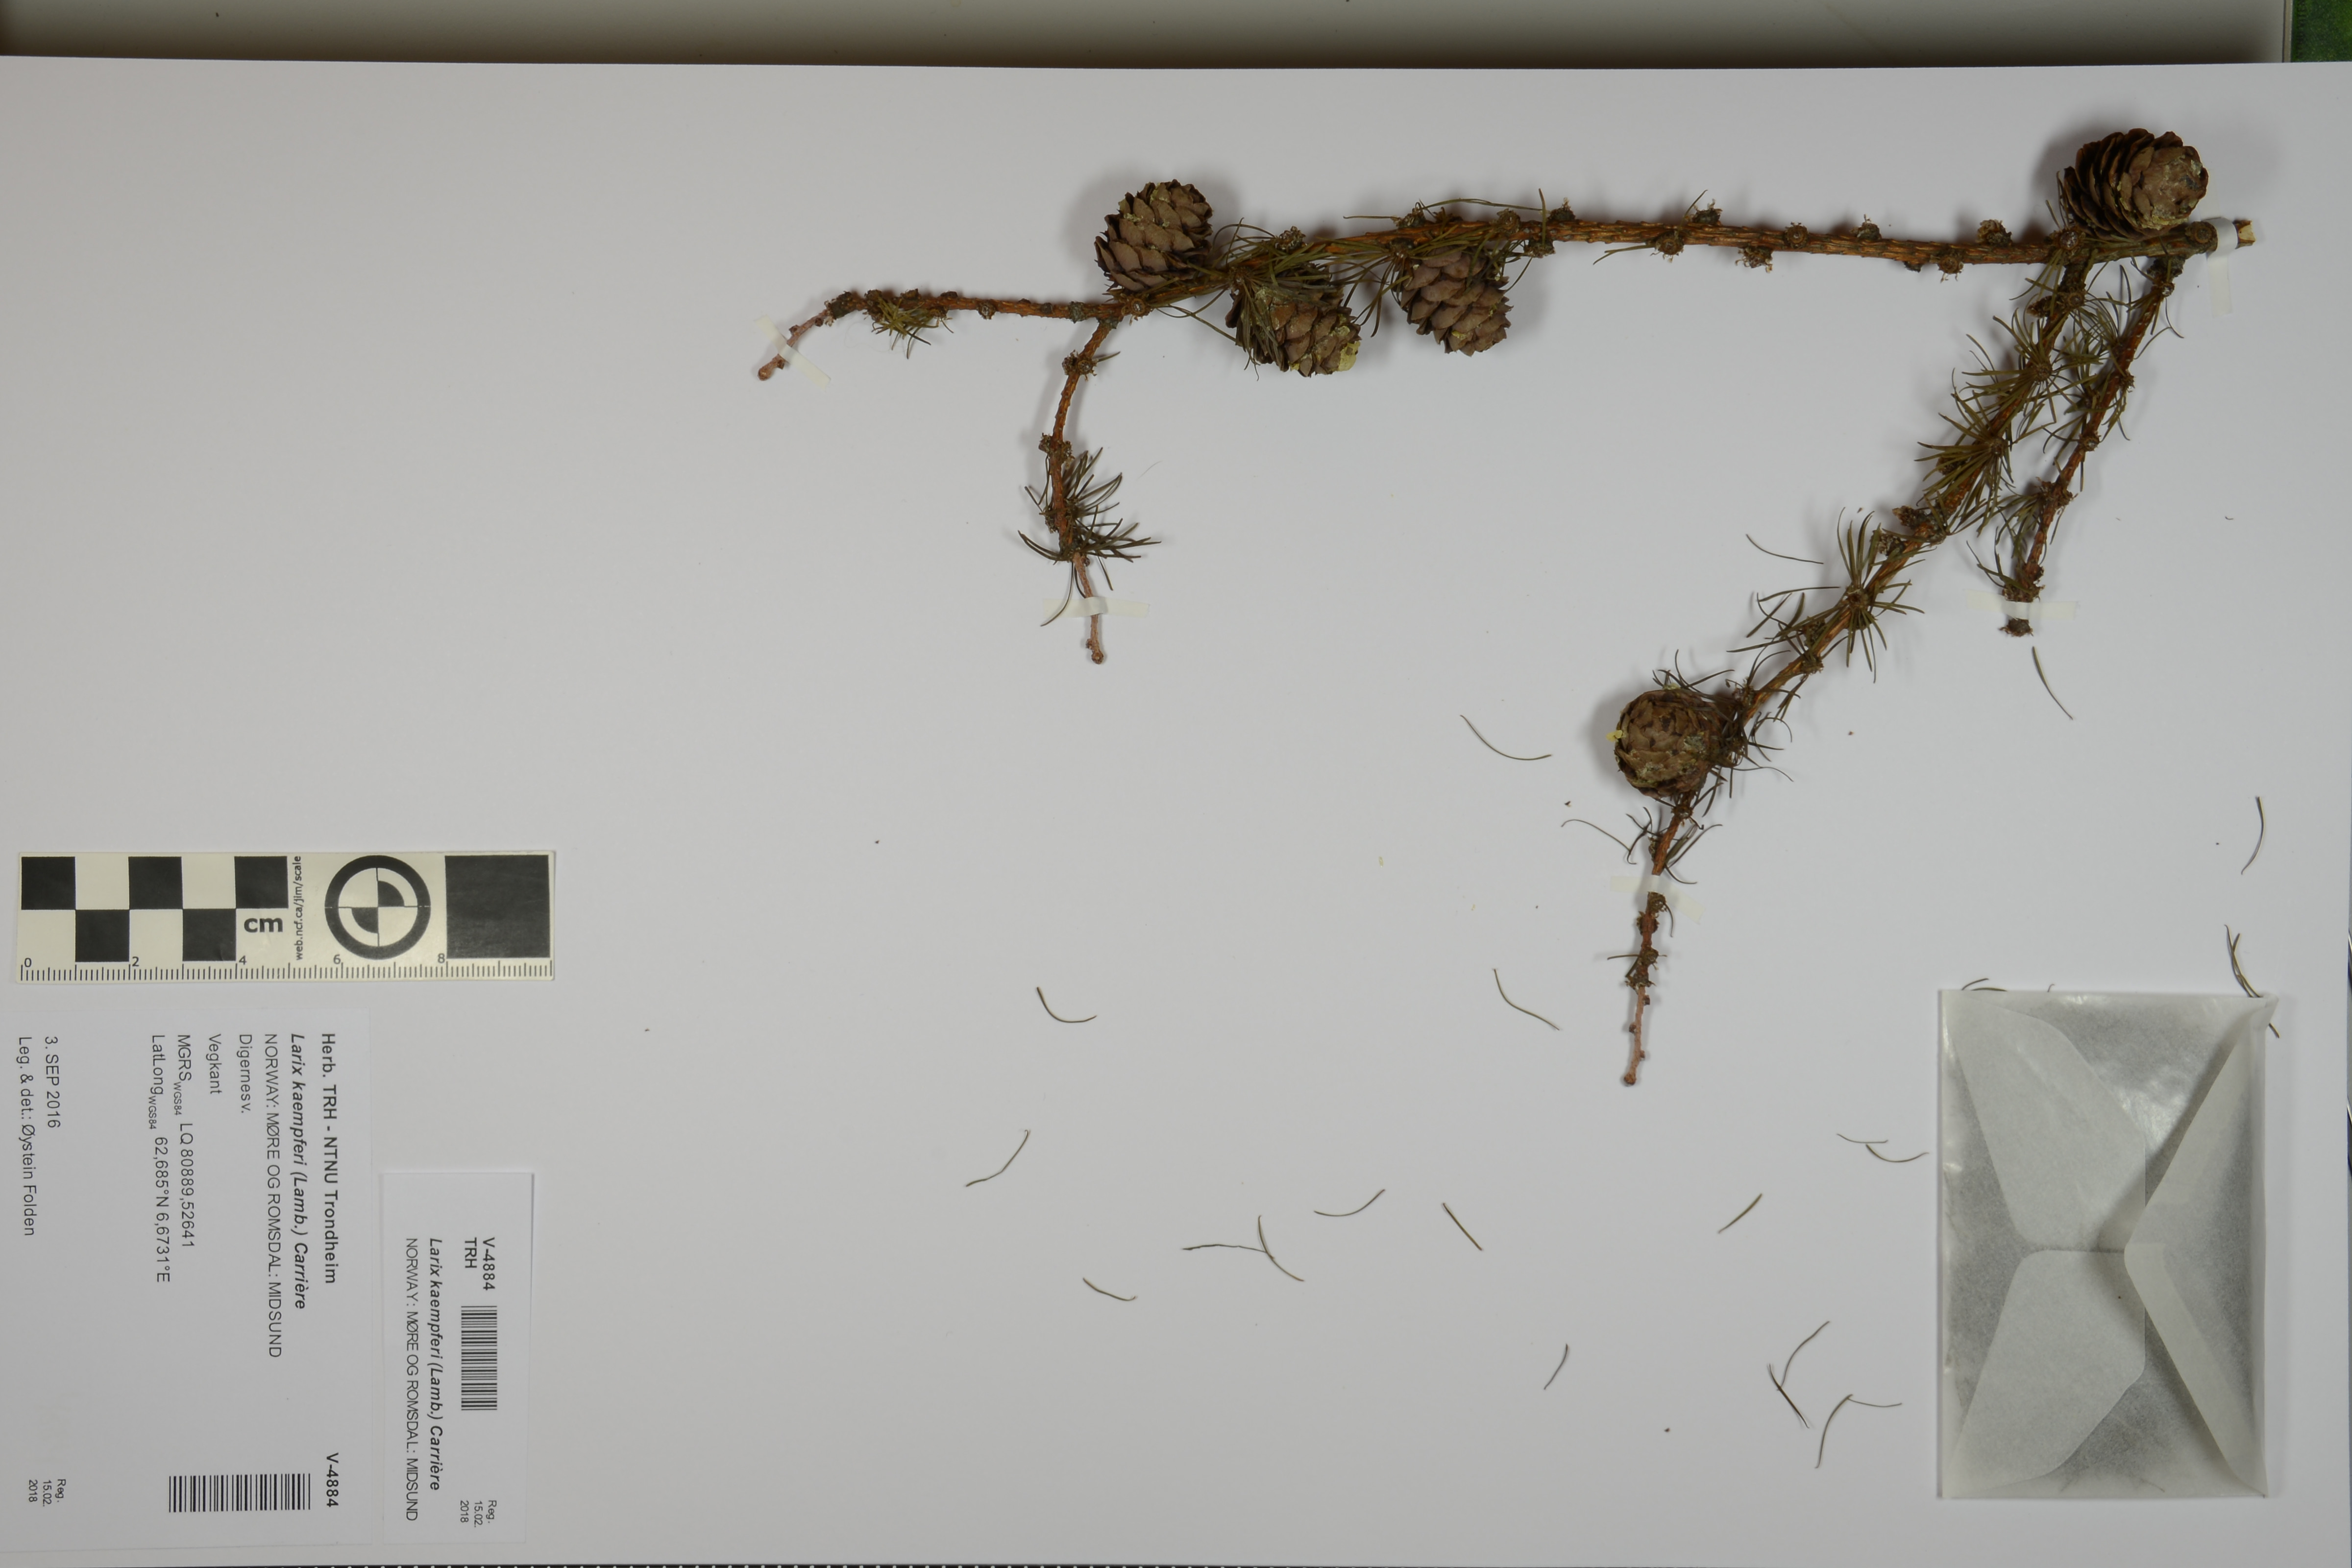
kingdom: Plantae
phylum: Tracheophyta
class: Pinopsida
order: Pinales
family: Pinaceae
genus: Larix
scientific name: Larix kaempferi
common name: Japanese larch
